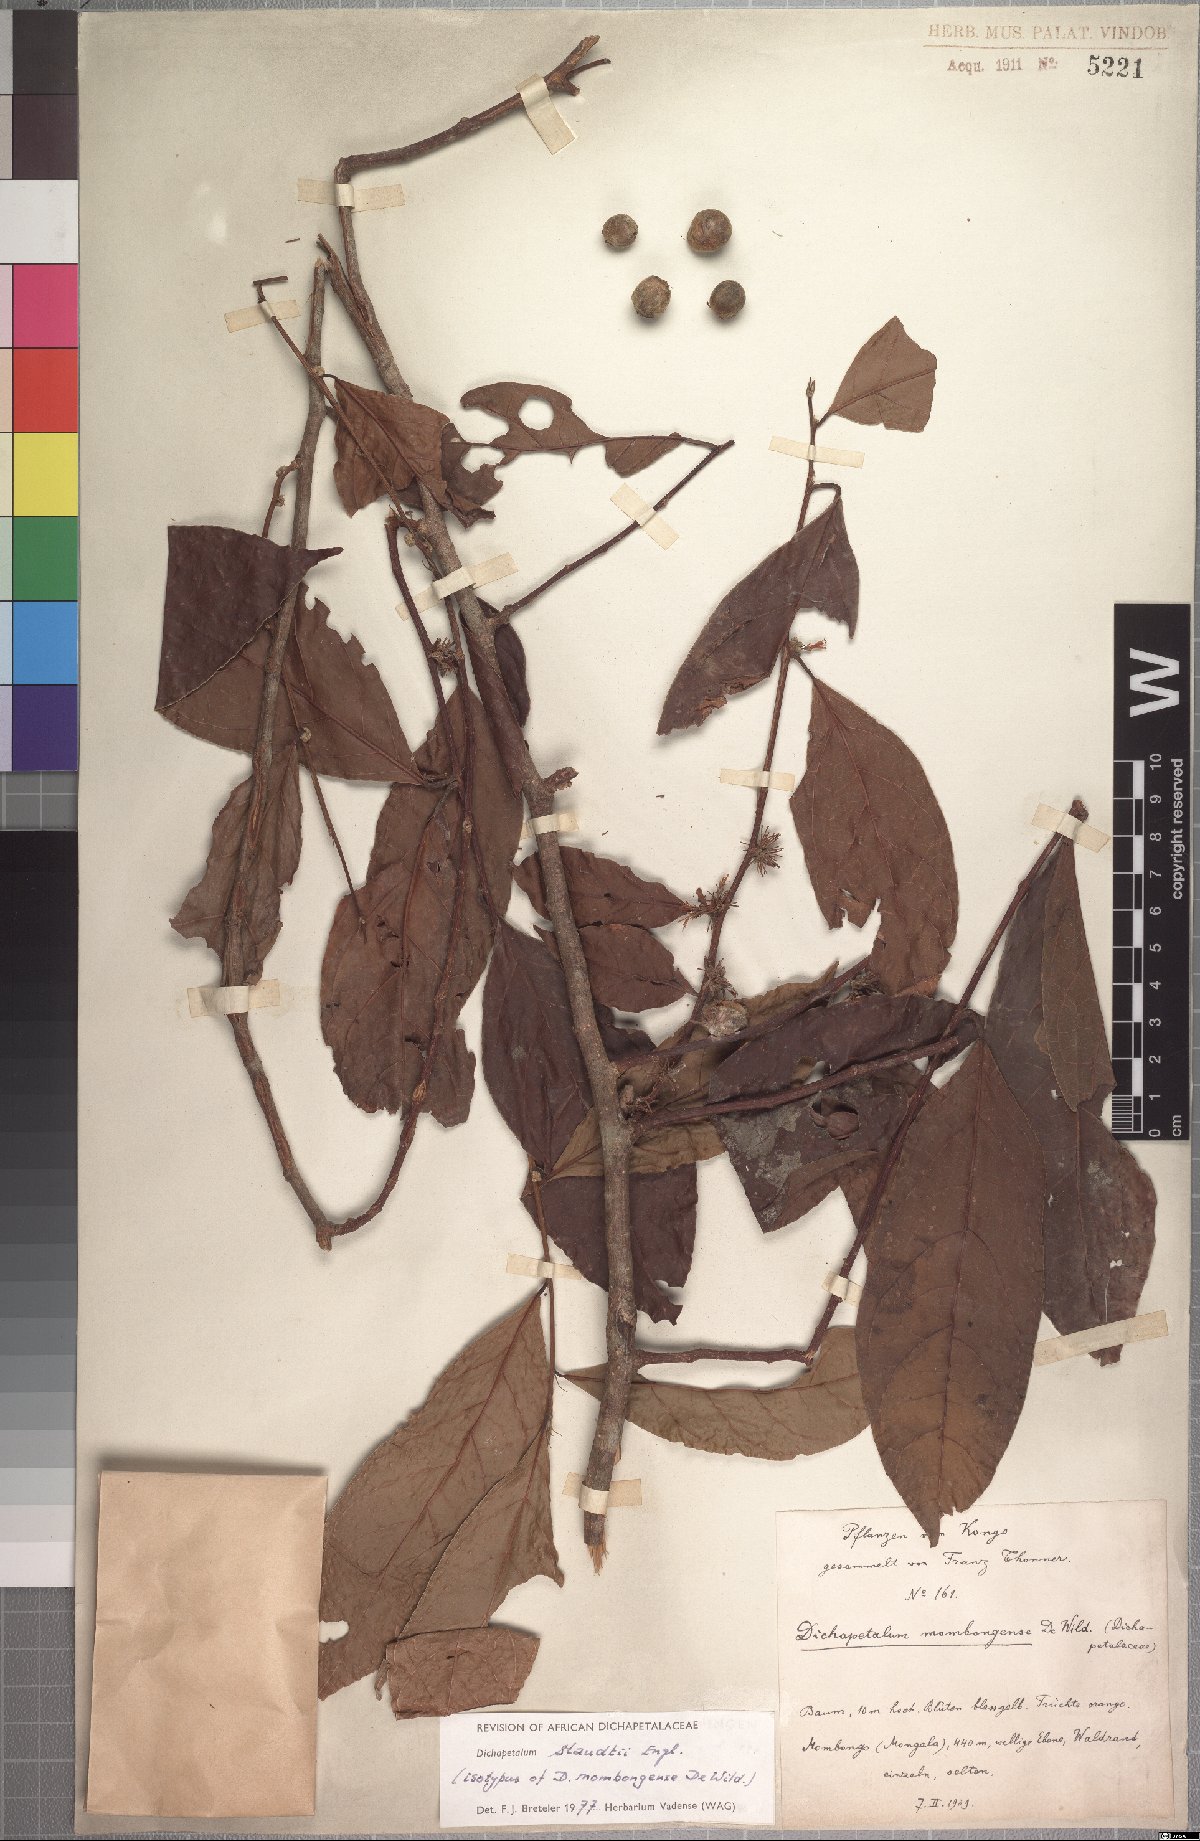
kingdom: Plantae
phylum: Tracheophyta
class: Magnoliopsida
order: Malpighiales
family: Dichapetalaceae
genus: Dichapetalum
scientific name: Dichapetalum staudtii
